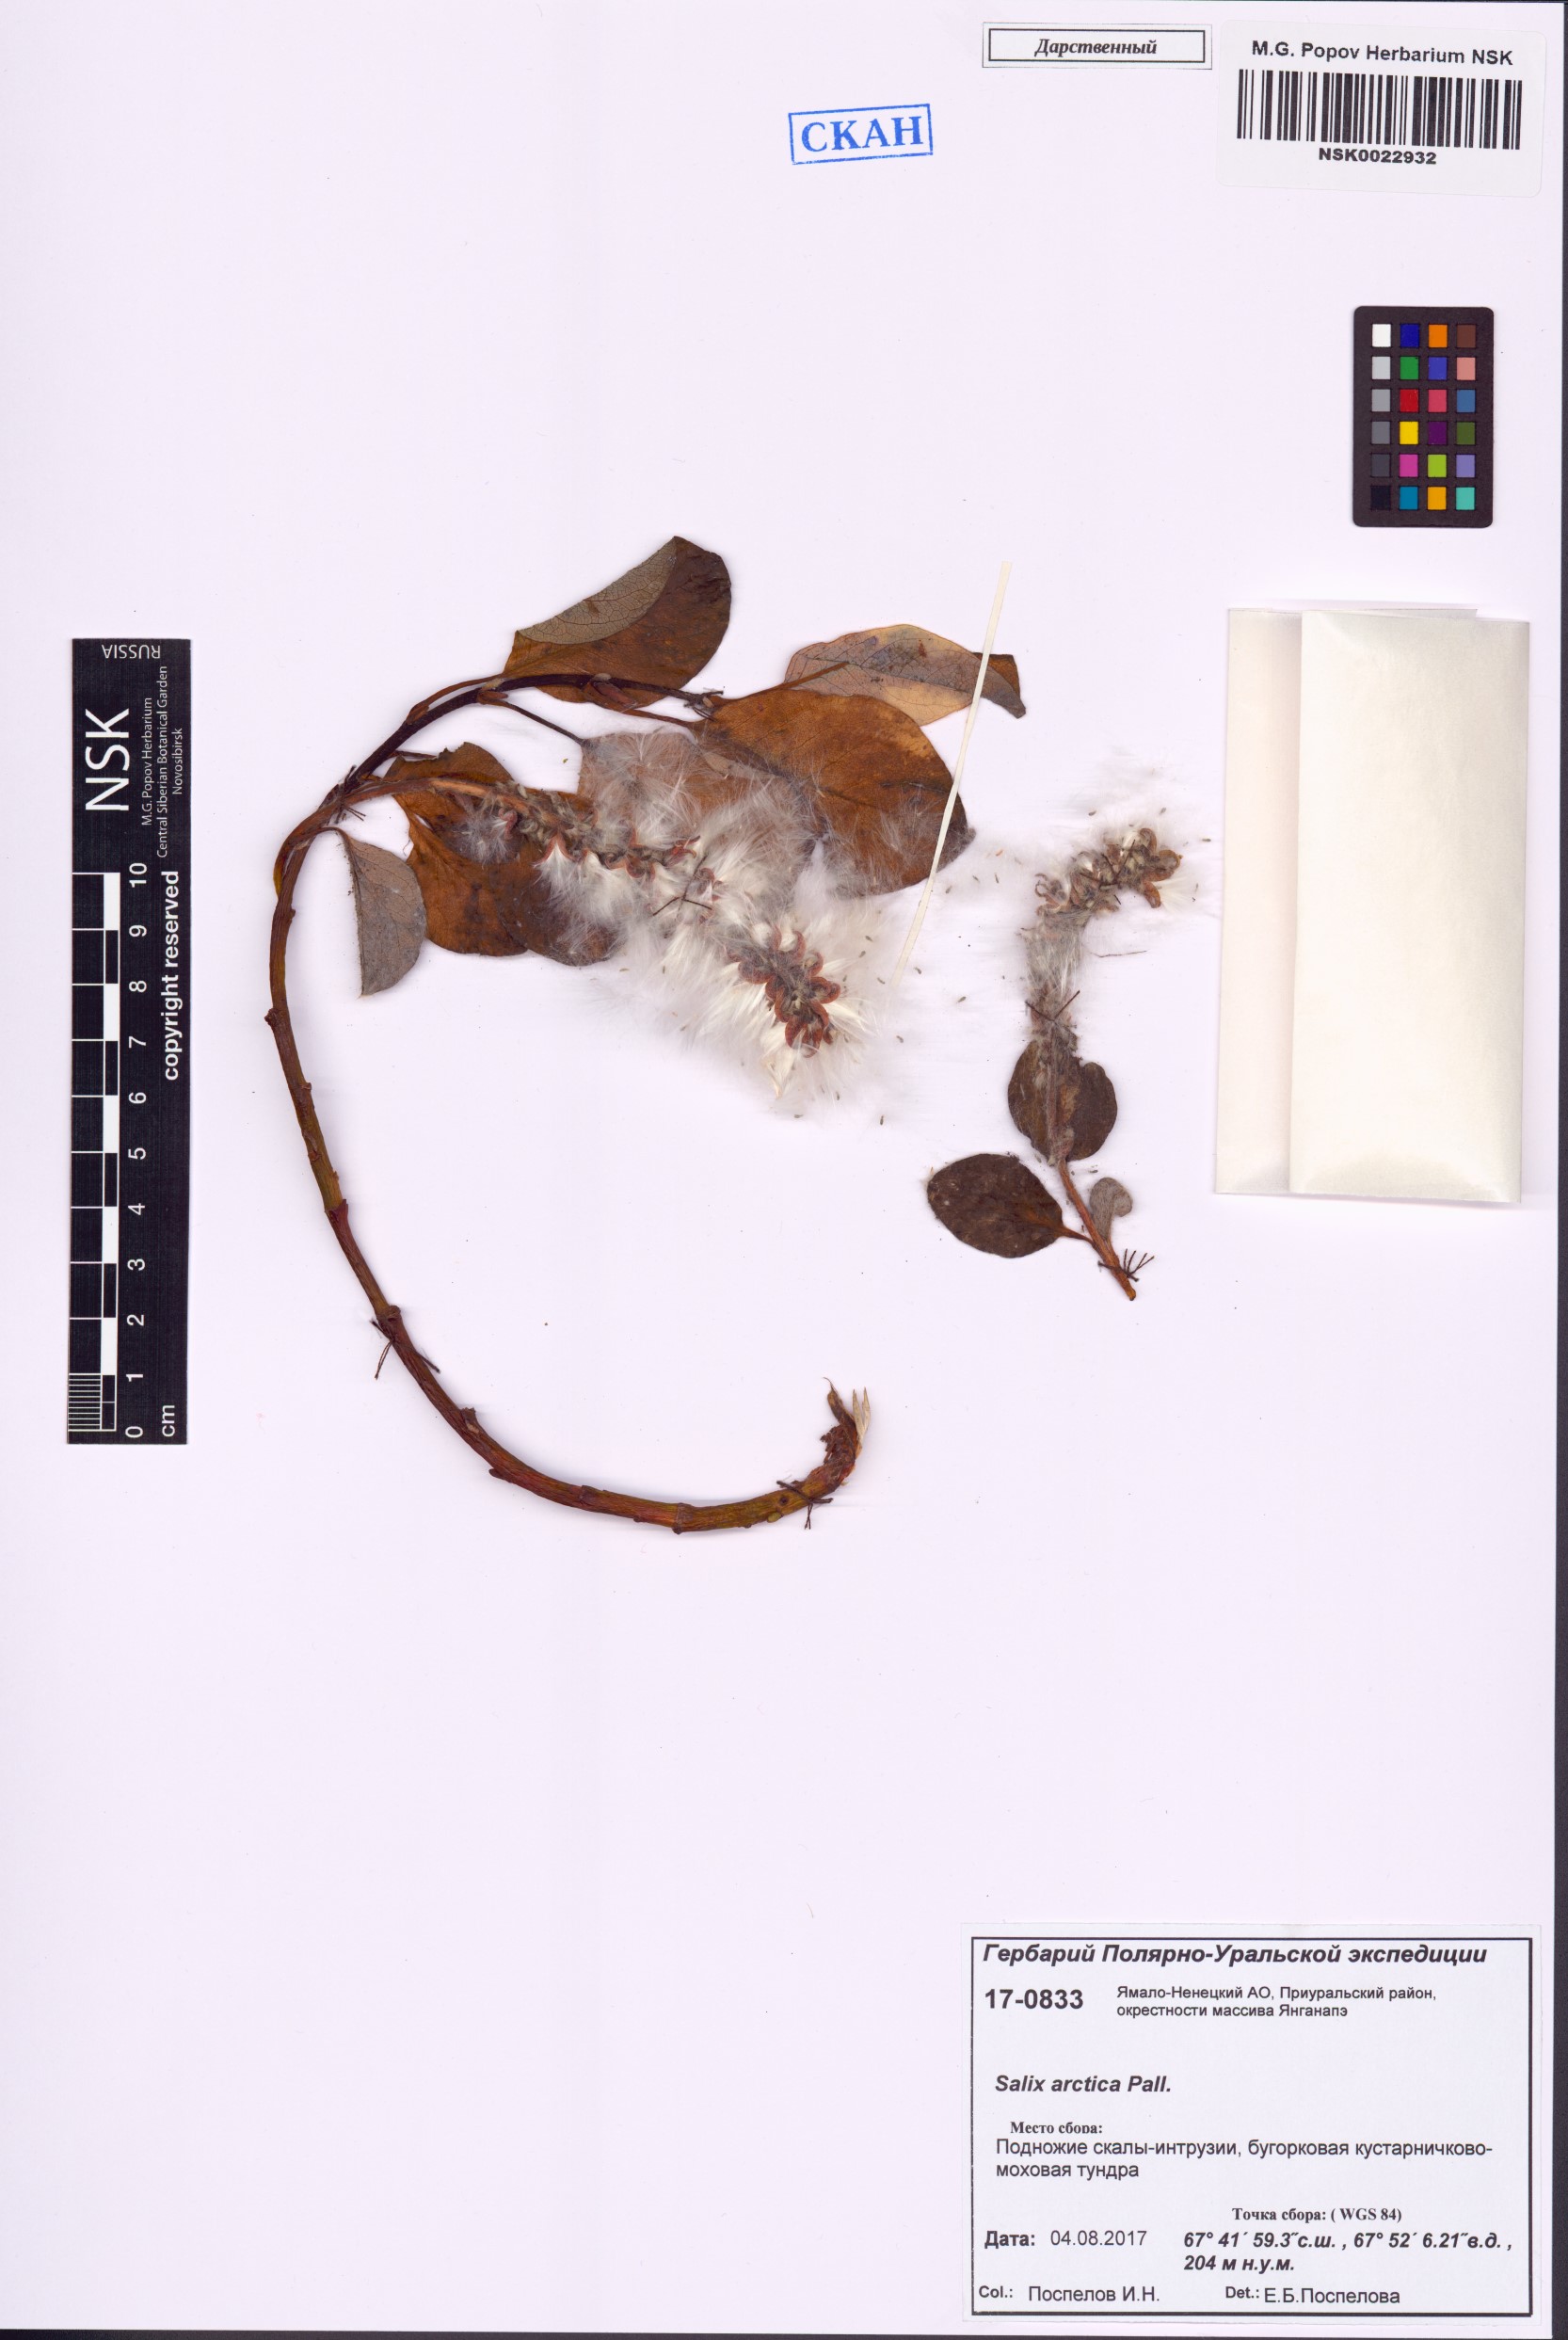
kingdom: Plantae
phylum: Tracheophyta
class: Magnoliopsida
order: Malpighiales
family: Salicaceae
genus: Salix
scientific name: Salix arctica
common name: Arctic willow
